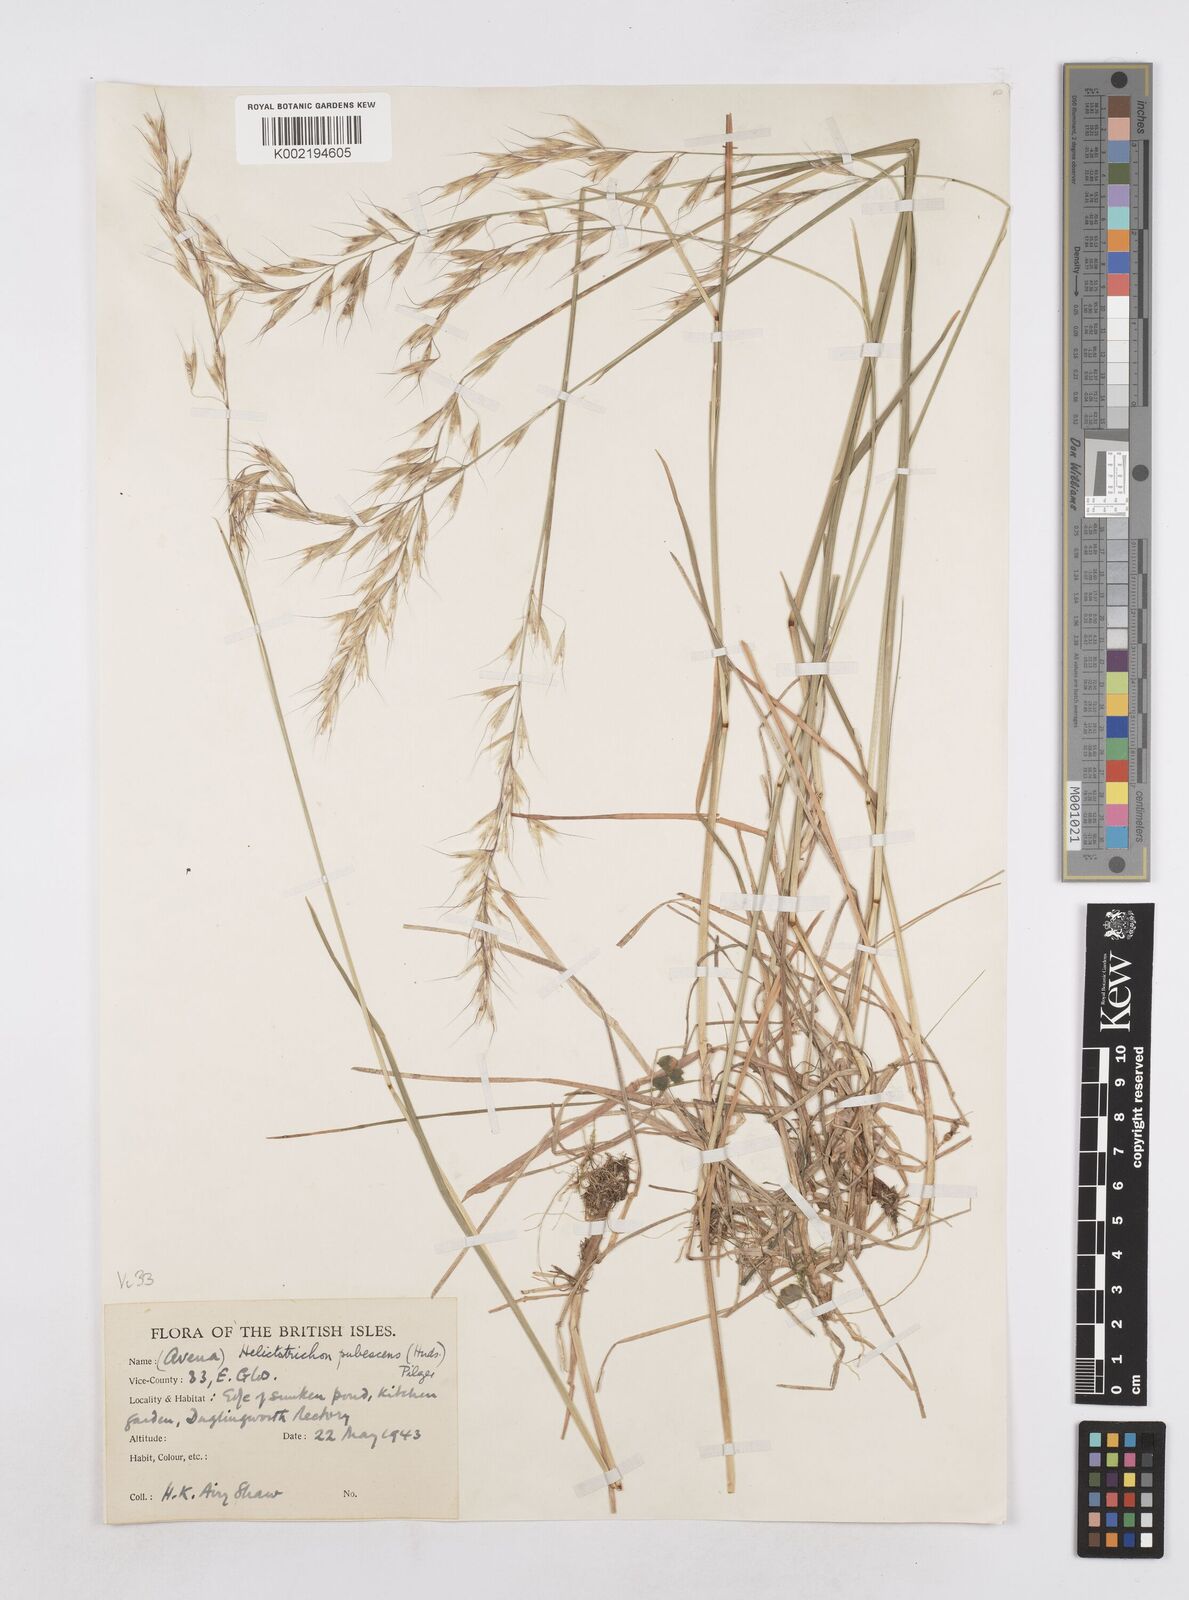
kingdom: Plantae
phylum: Tracheophyta
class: Liliopsida
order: Poales
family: Poaceae
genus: Avenula
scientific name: Avenula pubescens
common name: Downy alpine oatgrass
